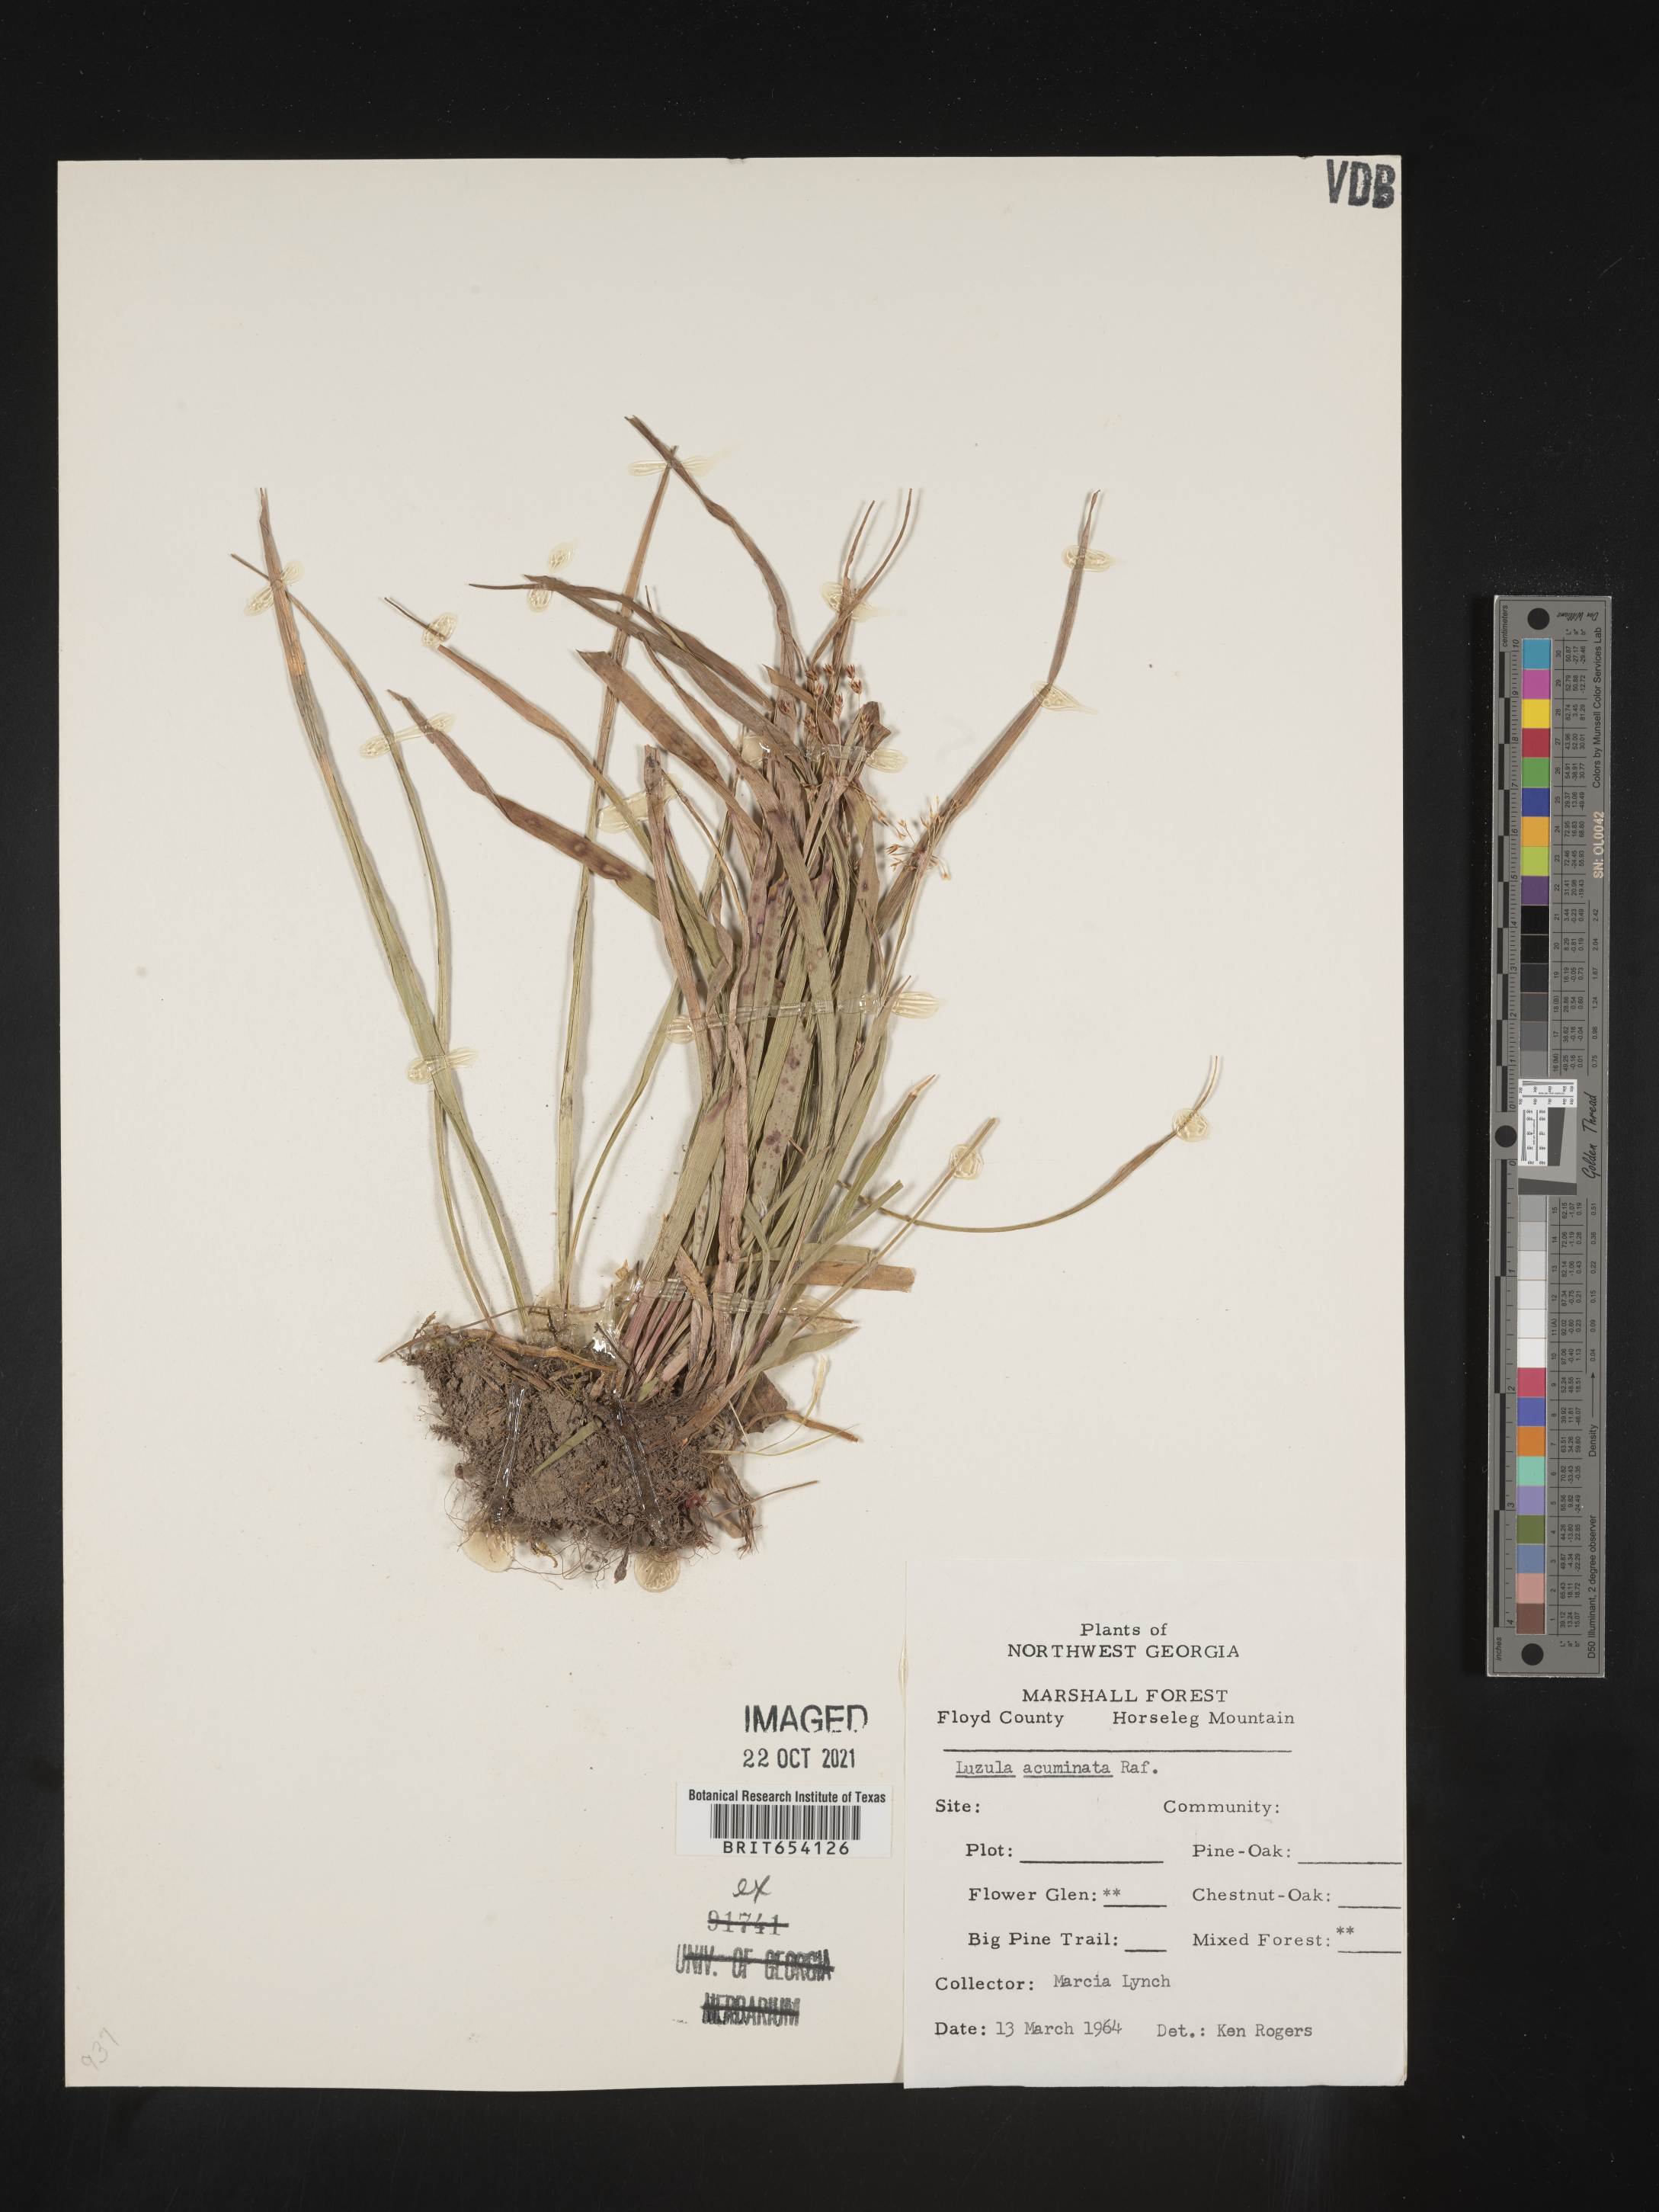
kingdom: Plantae
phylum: Tracheophyta
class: Liliopsida
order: Poales
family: Juncaceae
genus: Luzula
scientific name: Luzula acuminata
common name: Hairy woodrush
